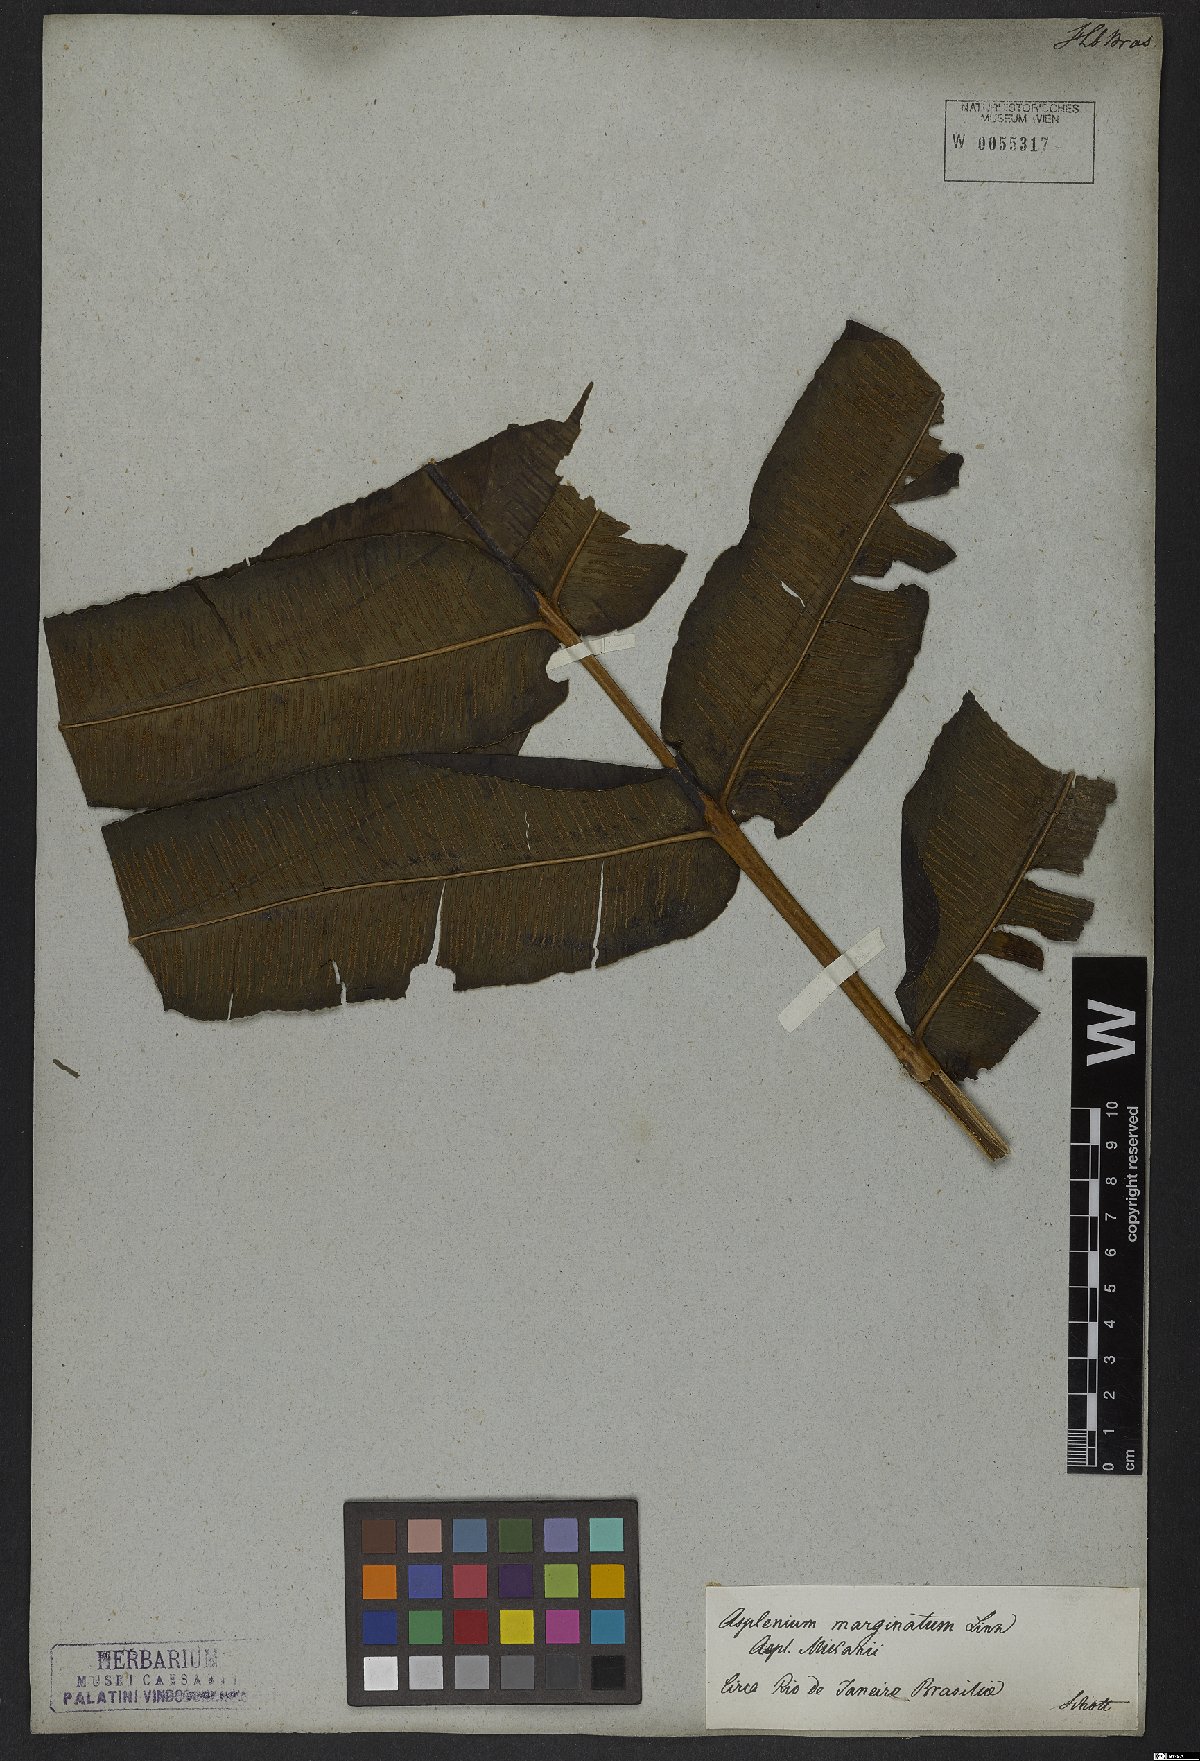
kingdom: Plantae
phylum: Tracheophyta
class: Polypodiopsida
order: Polypodiales
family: Hemidictyaceae
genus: Hemidictyum
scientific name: Hemidictyum marginatum
